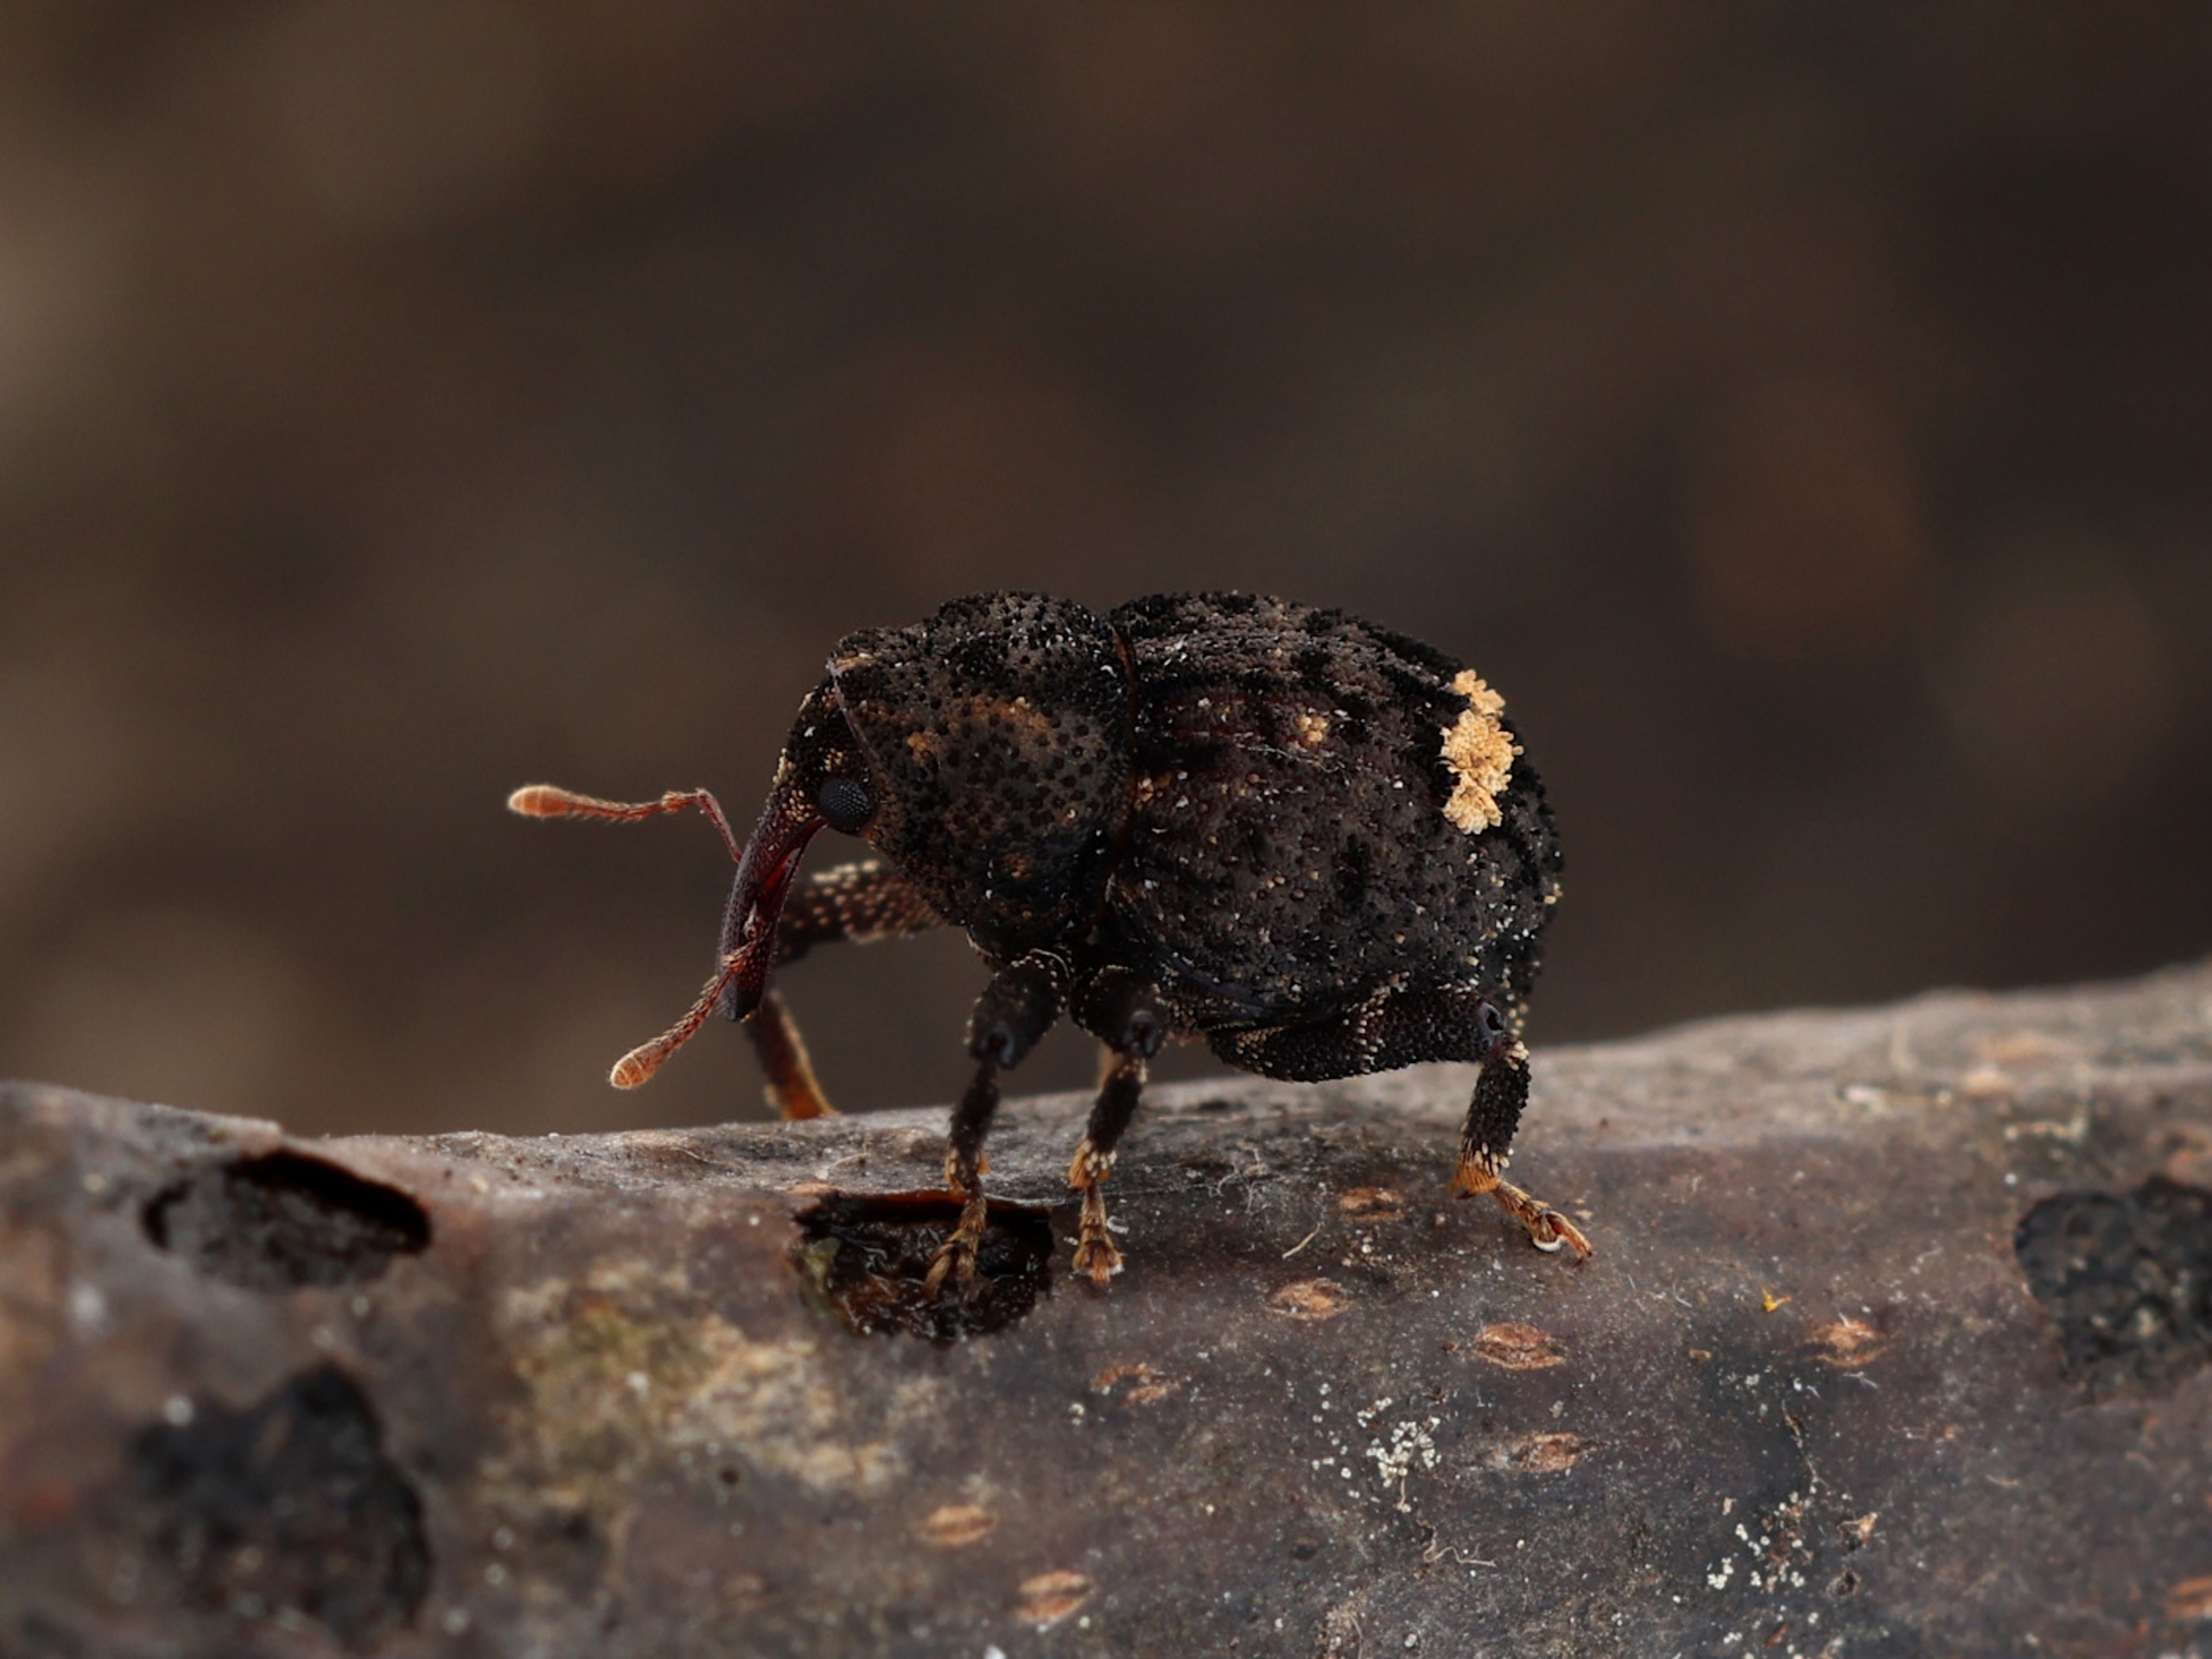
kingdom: Animalia
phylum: Arthropoda
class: Insecta
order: Coleoptera
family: Curculionidae
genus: Echinodera
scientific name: Echinodera hypocrita
